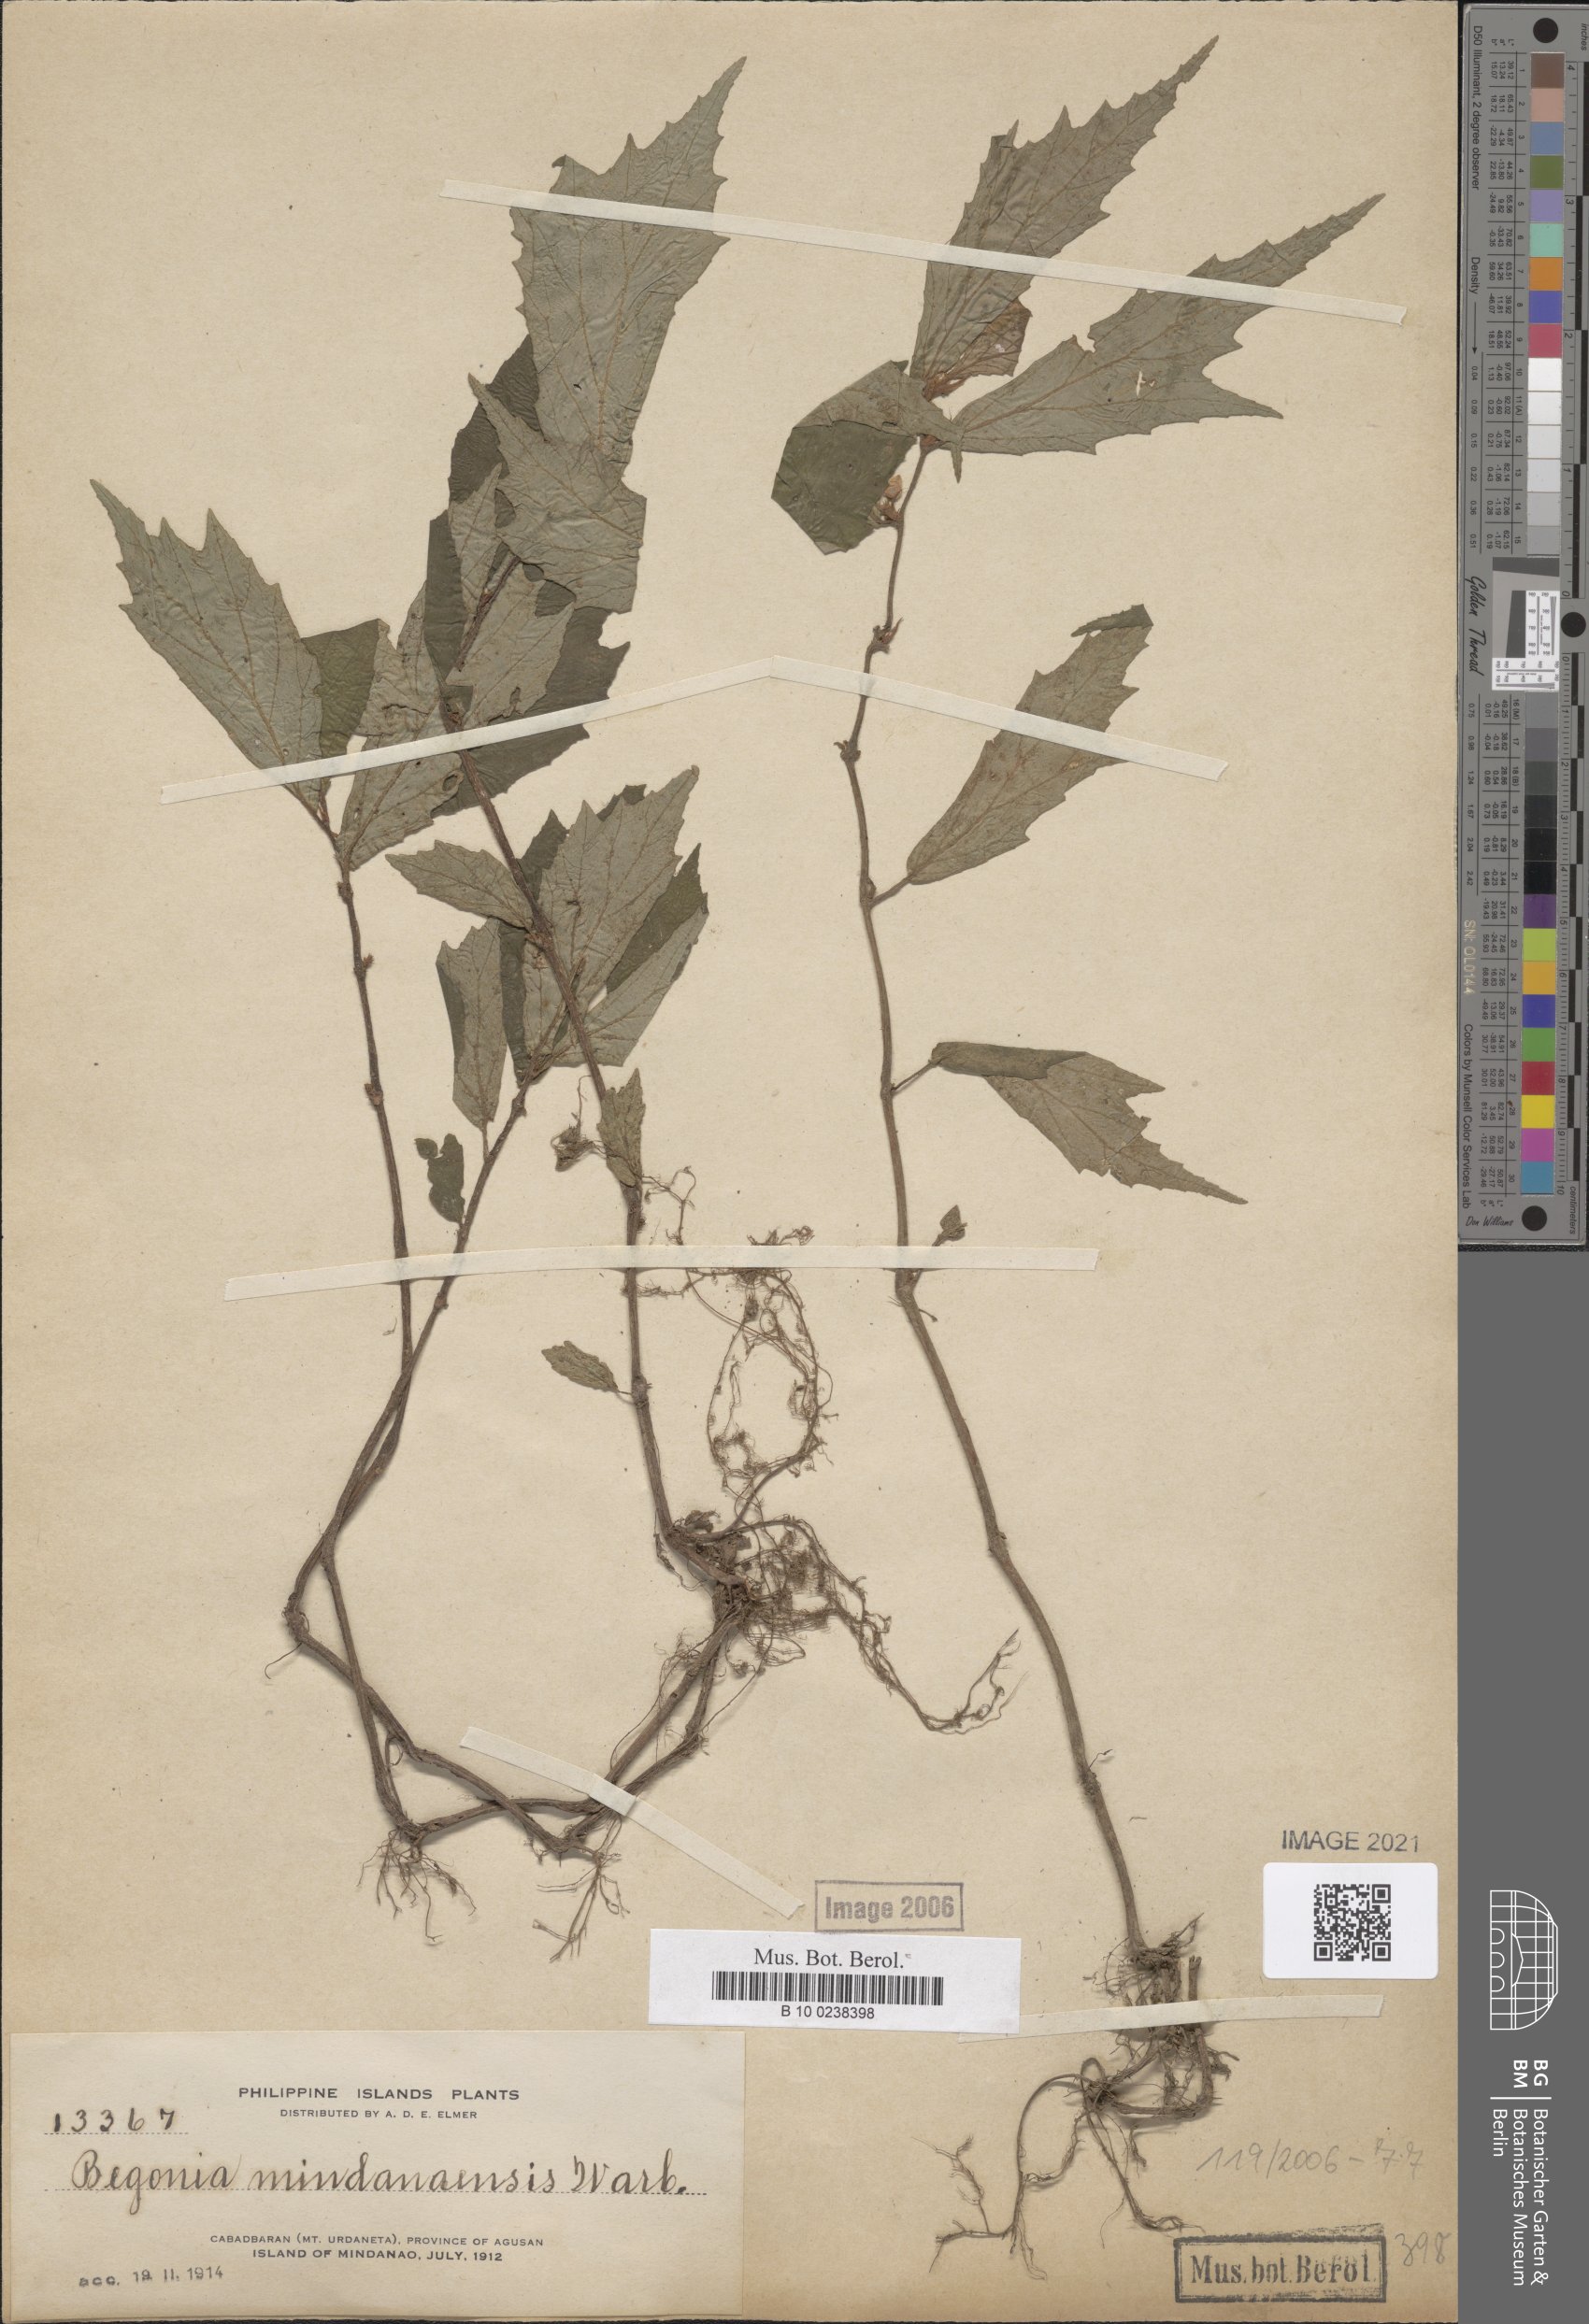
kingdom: Plantae
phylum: Tracheophyta
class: Magnoliopsida
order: Cucurbitales
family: Begoniaceae
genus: Begonia
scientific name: Begonia mindanaensis
